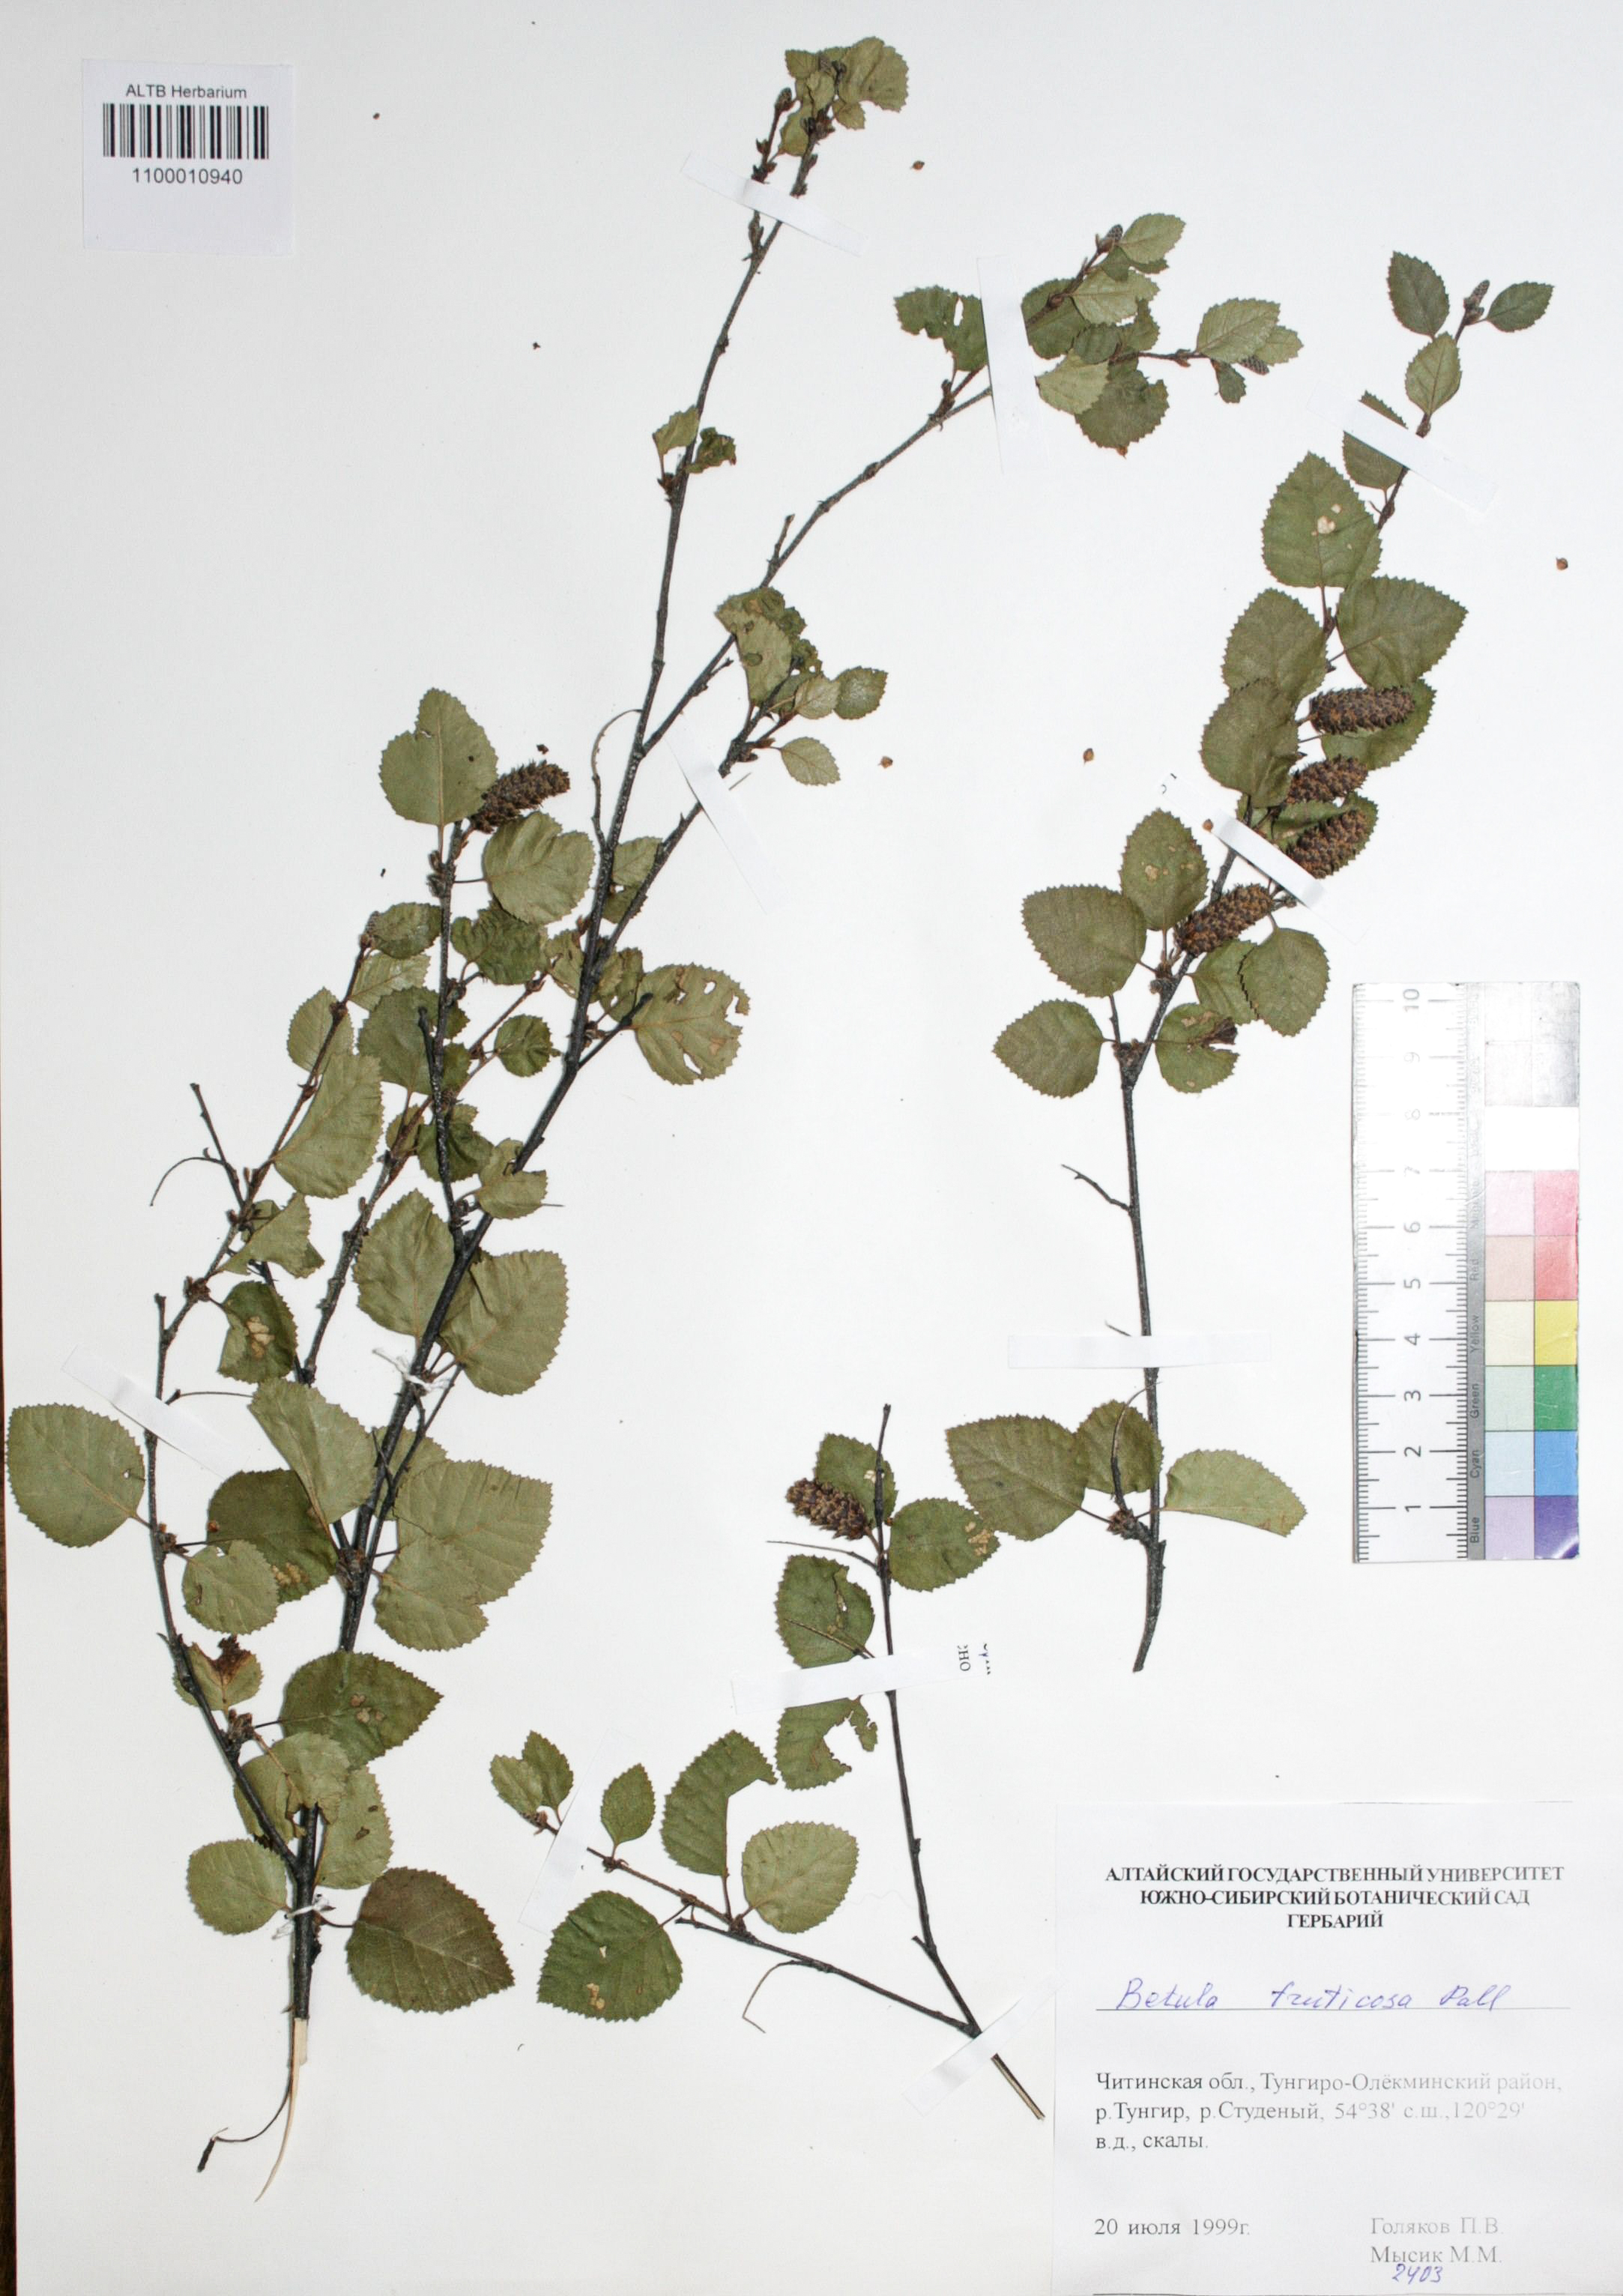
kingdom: Plantae
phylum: Tracheophyta
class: Magnoliopsida
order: Fagales
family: Betulaceae
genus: Betula
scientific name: Betula fruticosa
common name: Japanese bog birch
